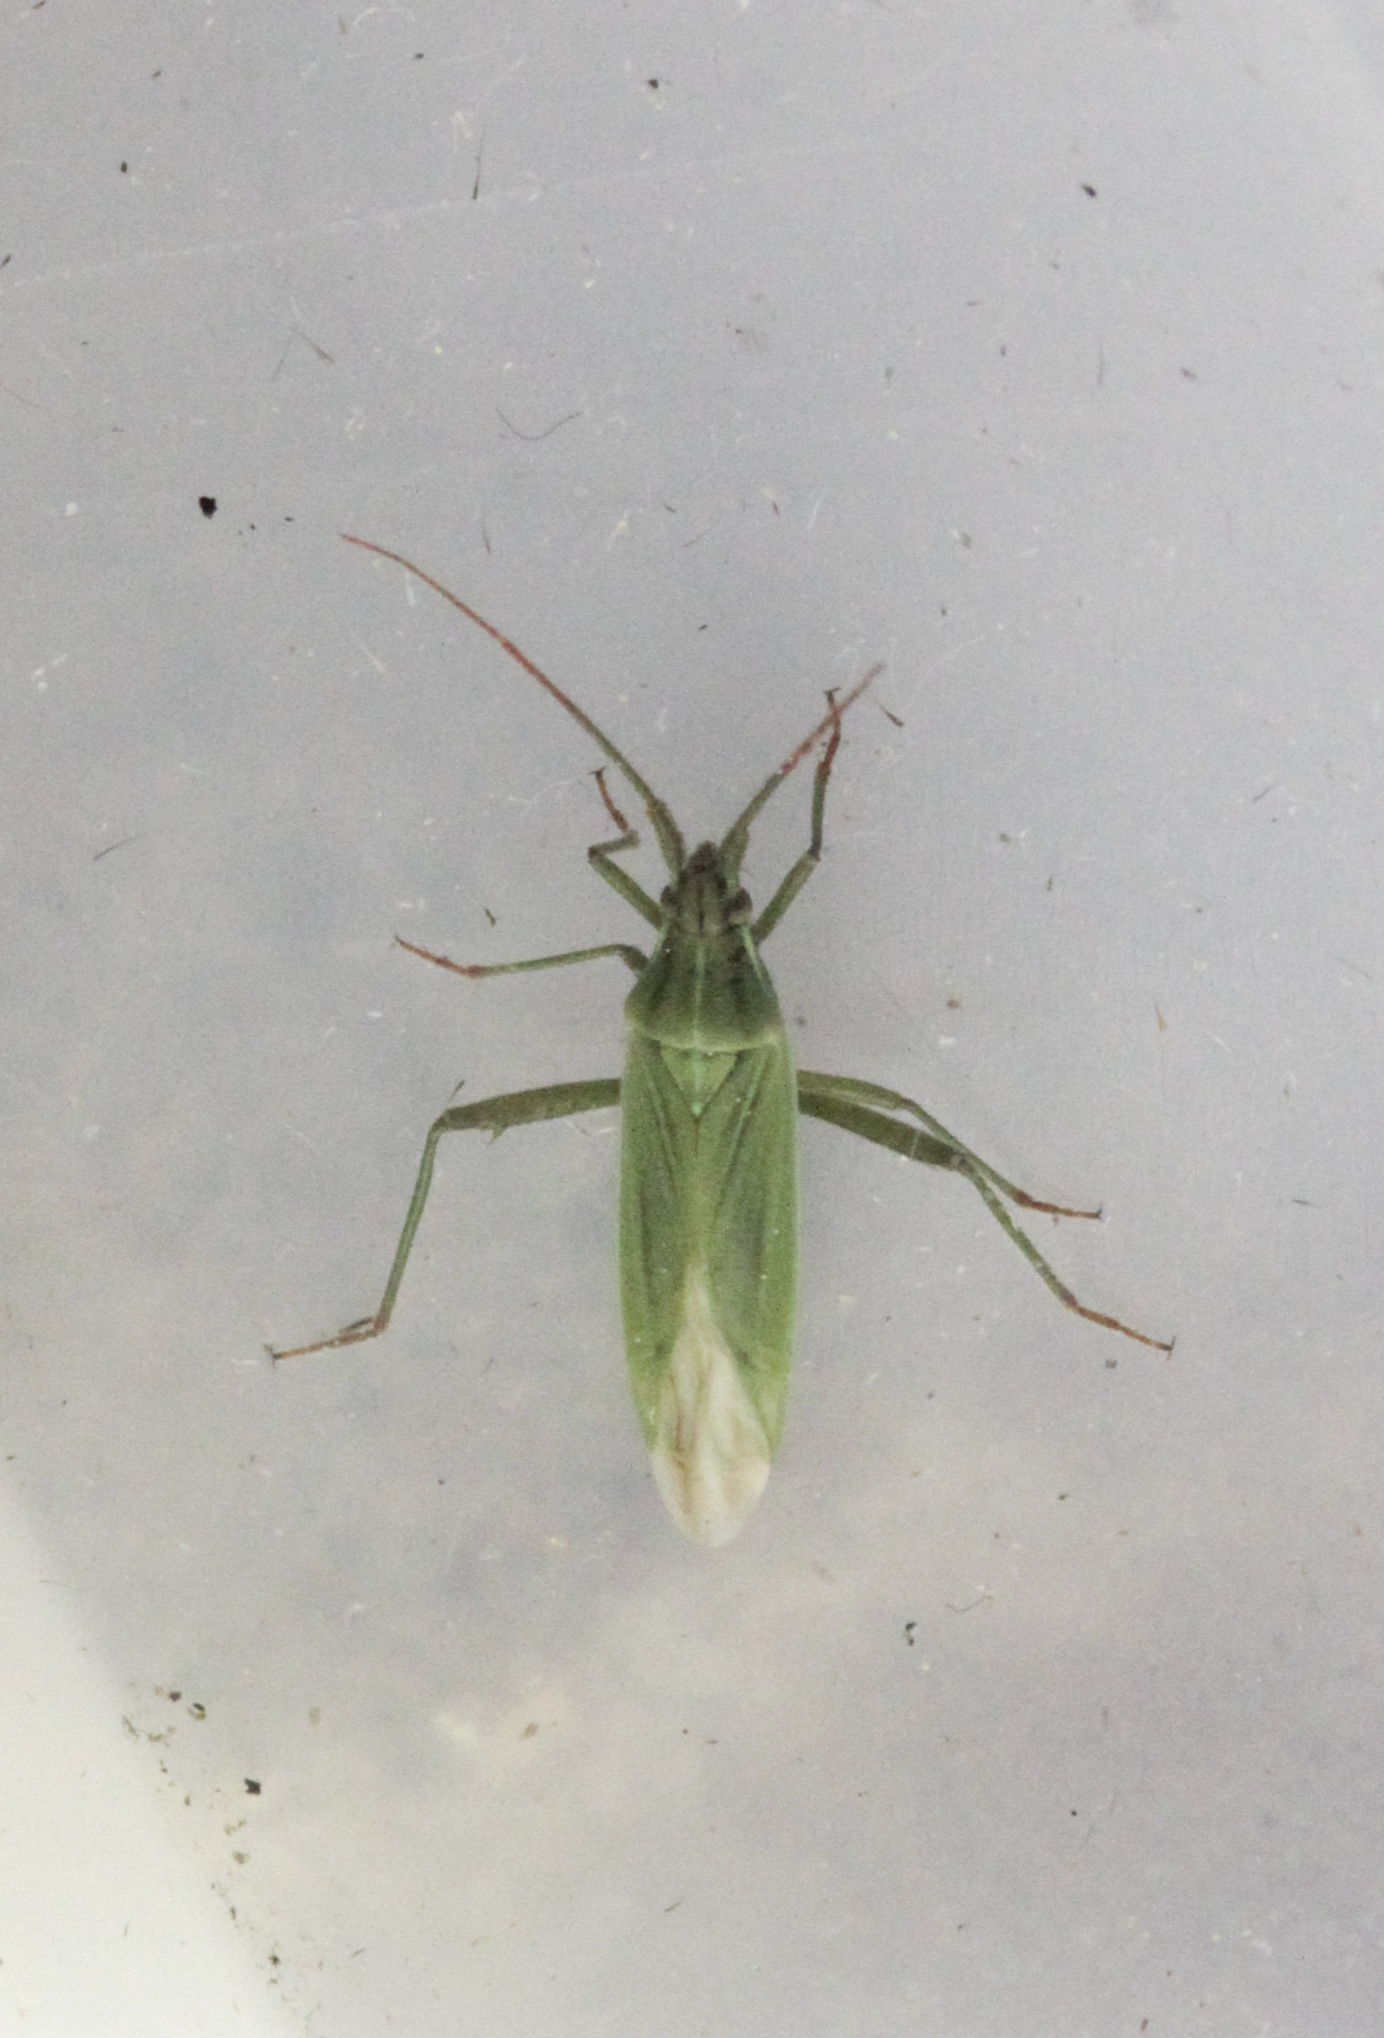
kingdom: Animalia
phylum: Arthropoda
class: Insecta
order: Hemiptera
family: Miridae
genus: Stenodema
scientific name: Stenodema calcarata
